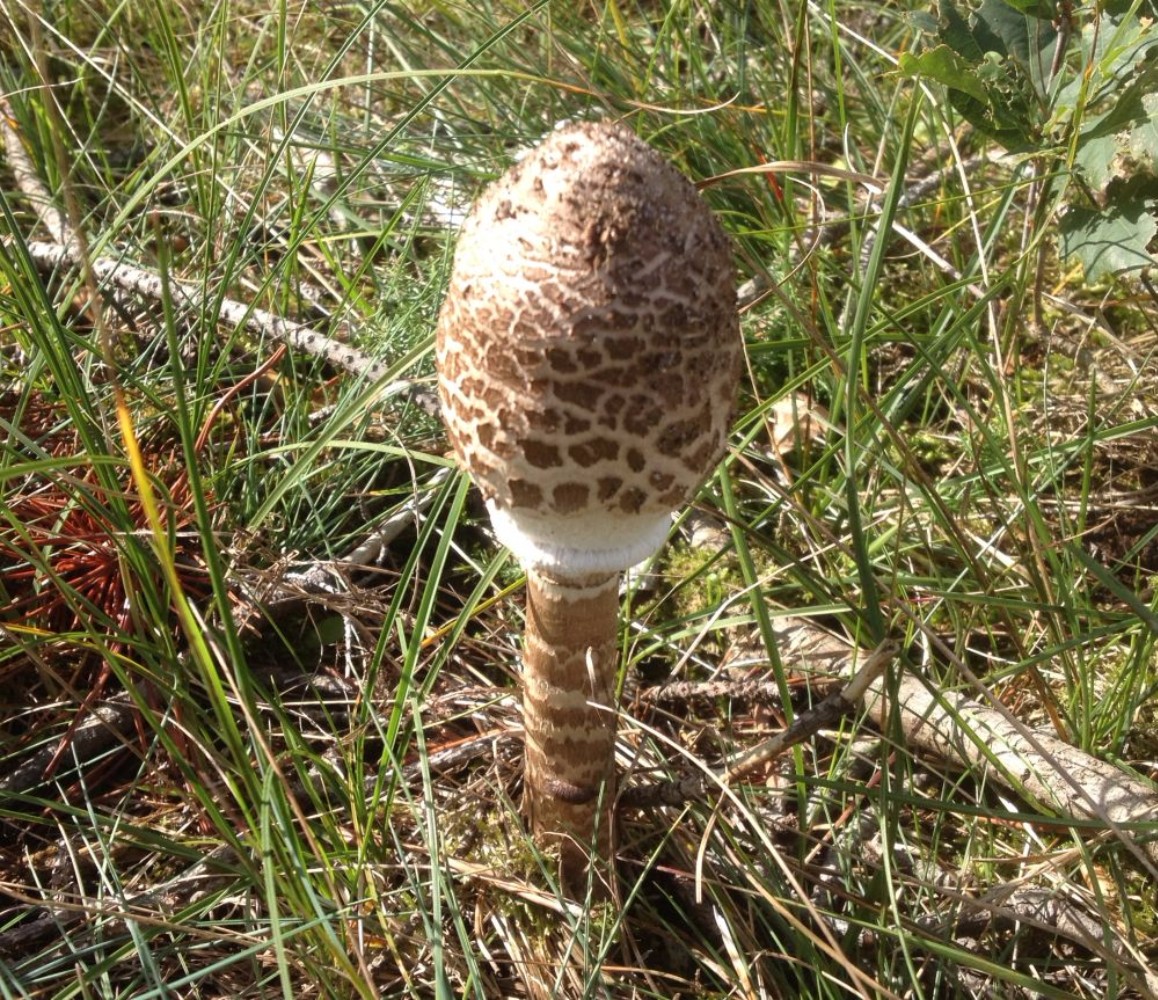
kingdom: Fungi
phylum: Basidiomycota
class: Agaricomycetes
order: Agaricales
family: Agaricaceae
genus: Macrolepiota
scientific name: Macrolepiota procera
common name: stor kæmpeparasolhat
